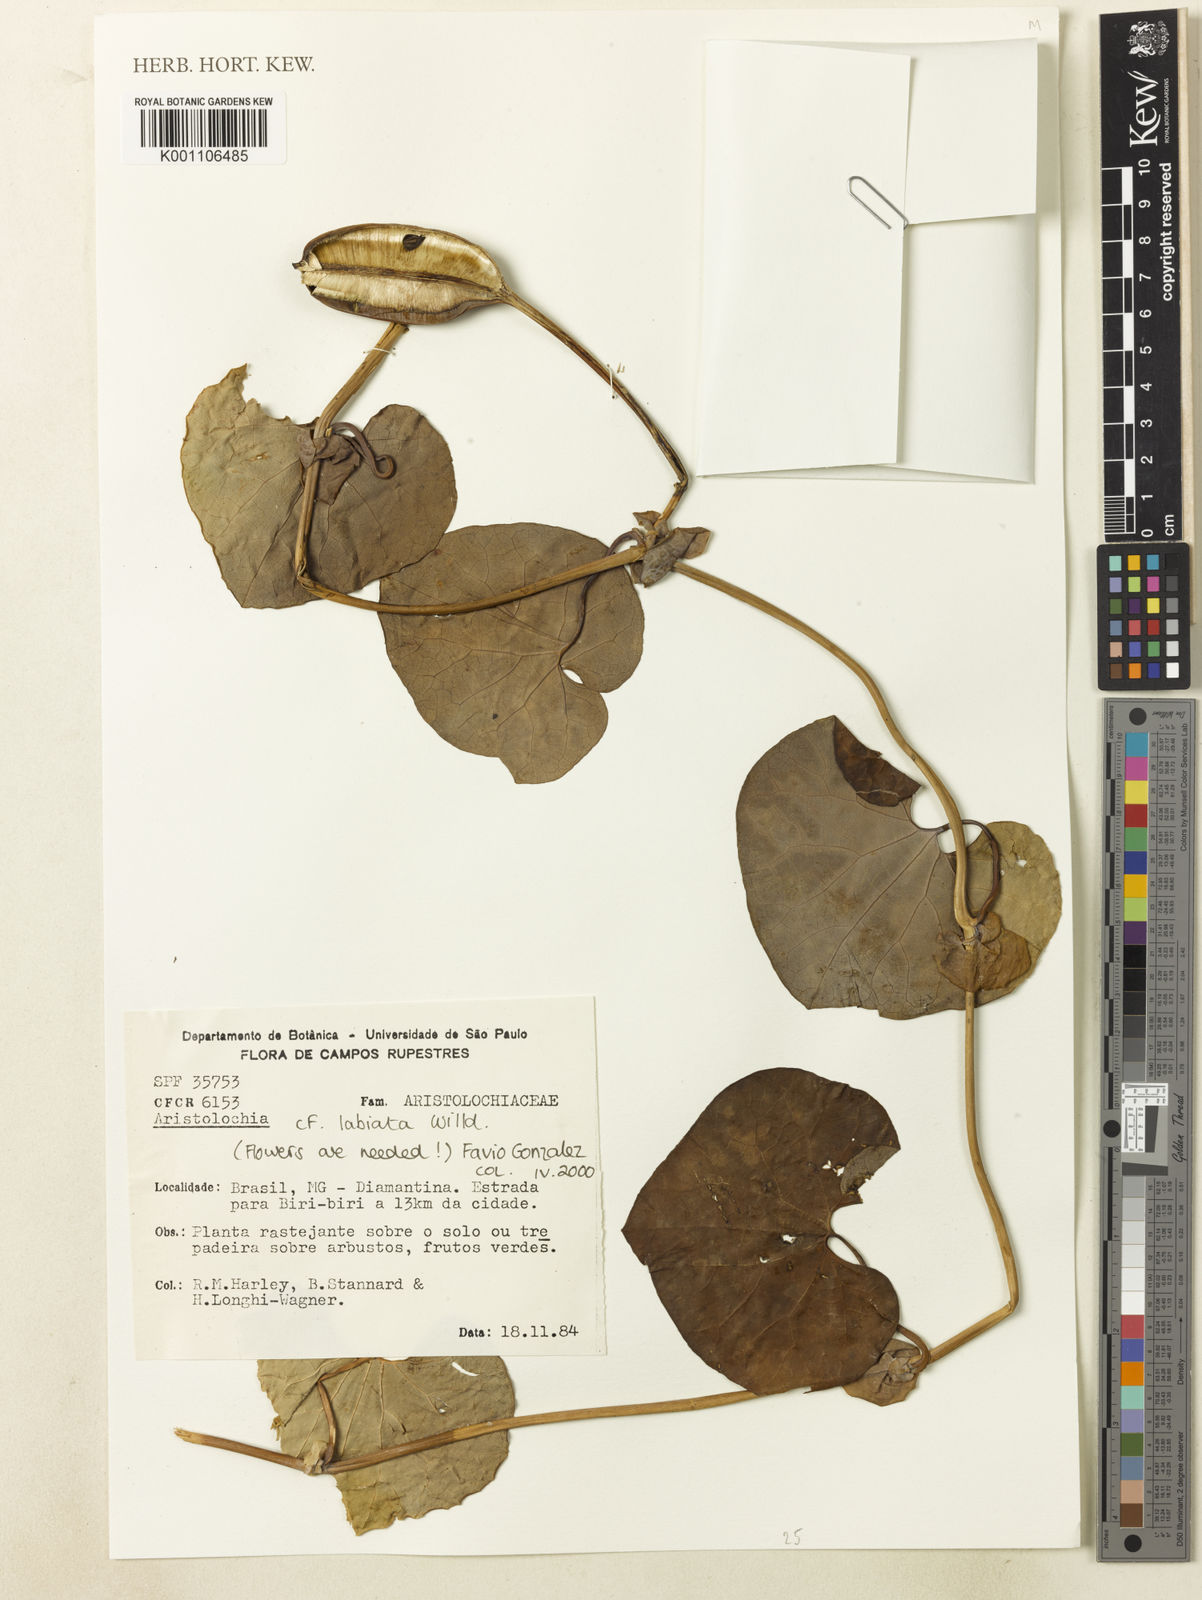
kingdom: Plantae
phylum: Tracheophyta
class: Magnoliopsida
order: Piperales
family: Aristolochiaceae
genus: Aristolochia
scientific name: Aristolochia labiata
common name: Mottled dutchman's pipe
